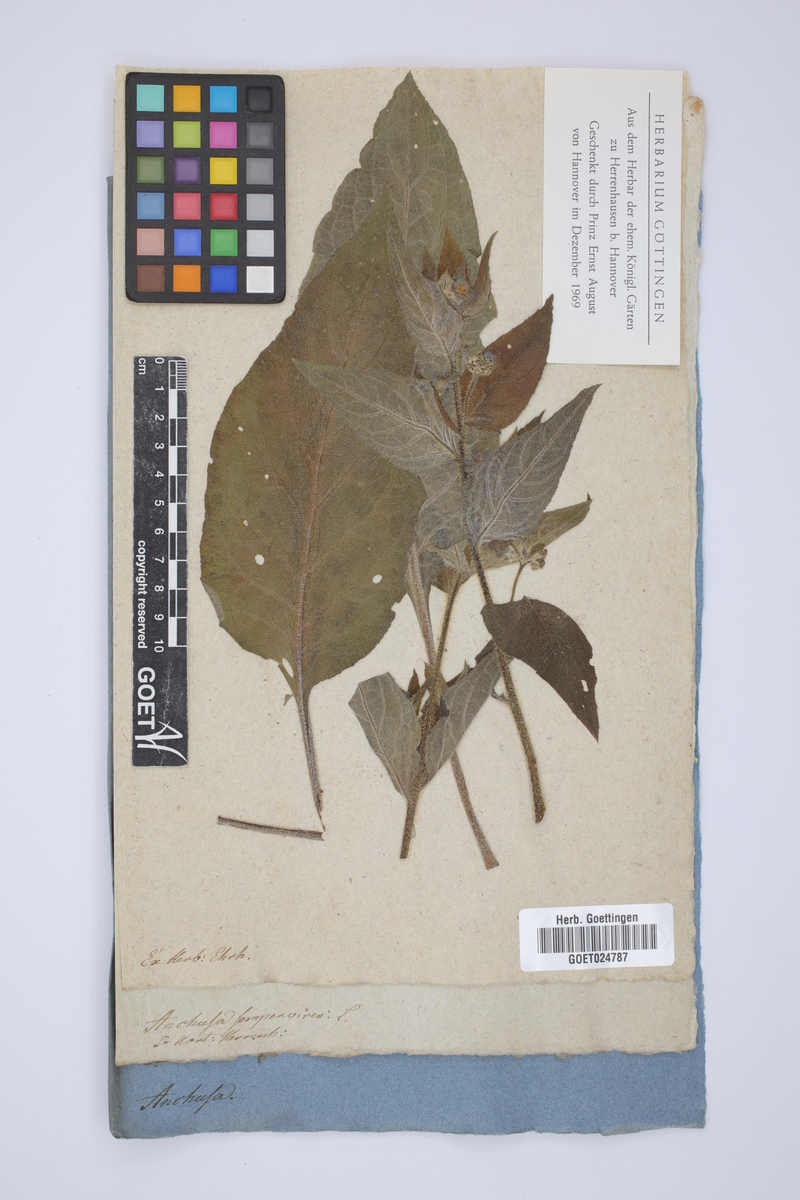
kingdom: Plantae
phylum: Tracheophyta
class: Magnoliopsida
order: Boraginales
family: Boraginaceae
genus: Pentaglottis
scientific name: Pentaglottis sempervirens
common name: Green alkanet
